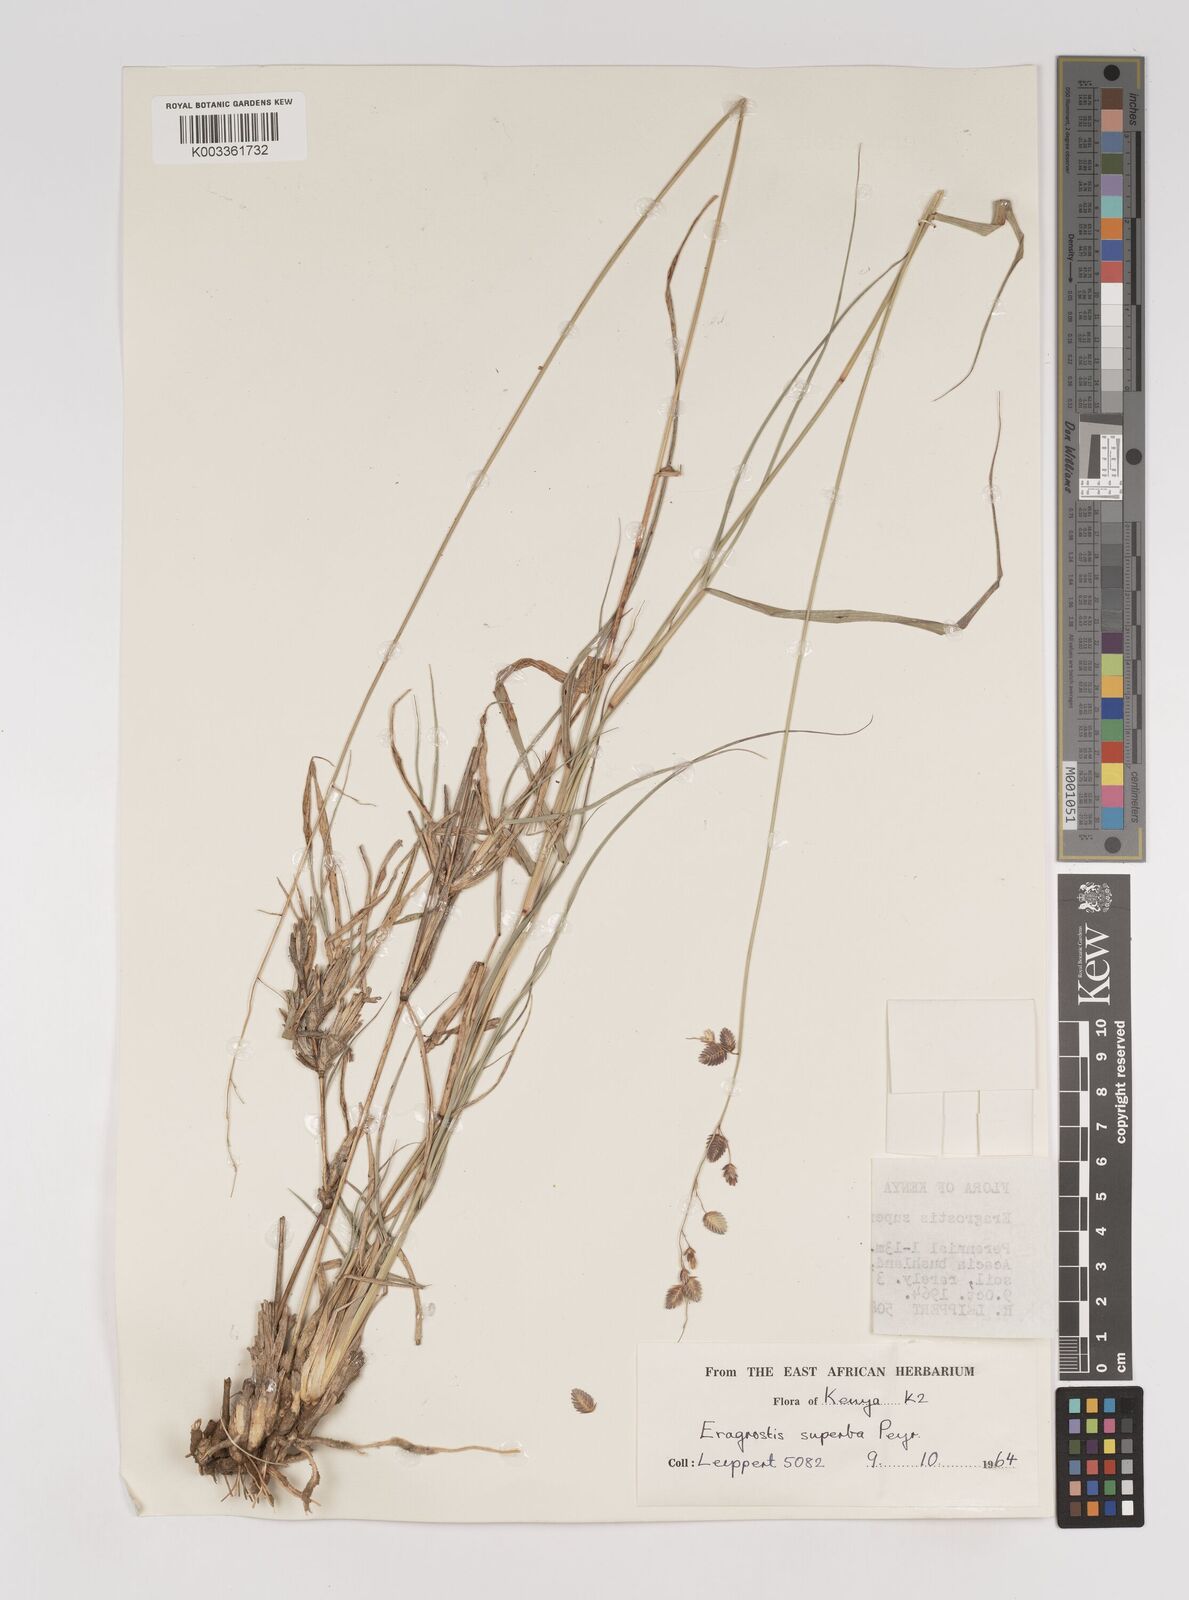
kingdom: Plantae
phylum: Tracheophyta
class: Liliopsida
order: Poales
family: Poaceae
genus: Eragrostis
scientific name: Eragrostis superba
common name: Wilman lovegrass
